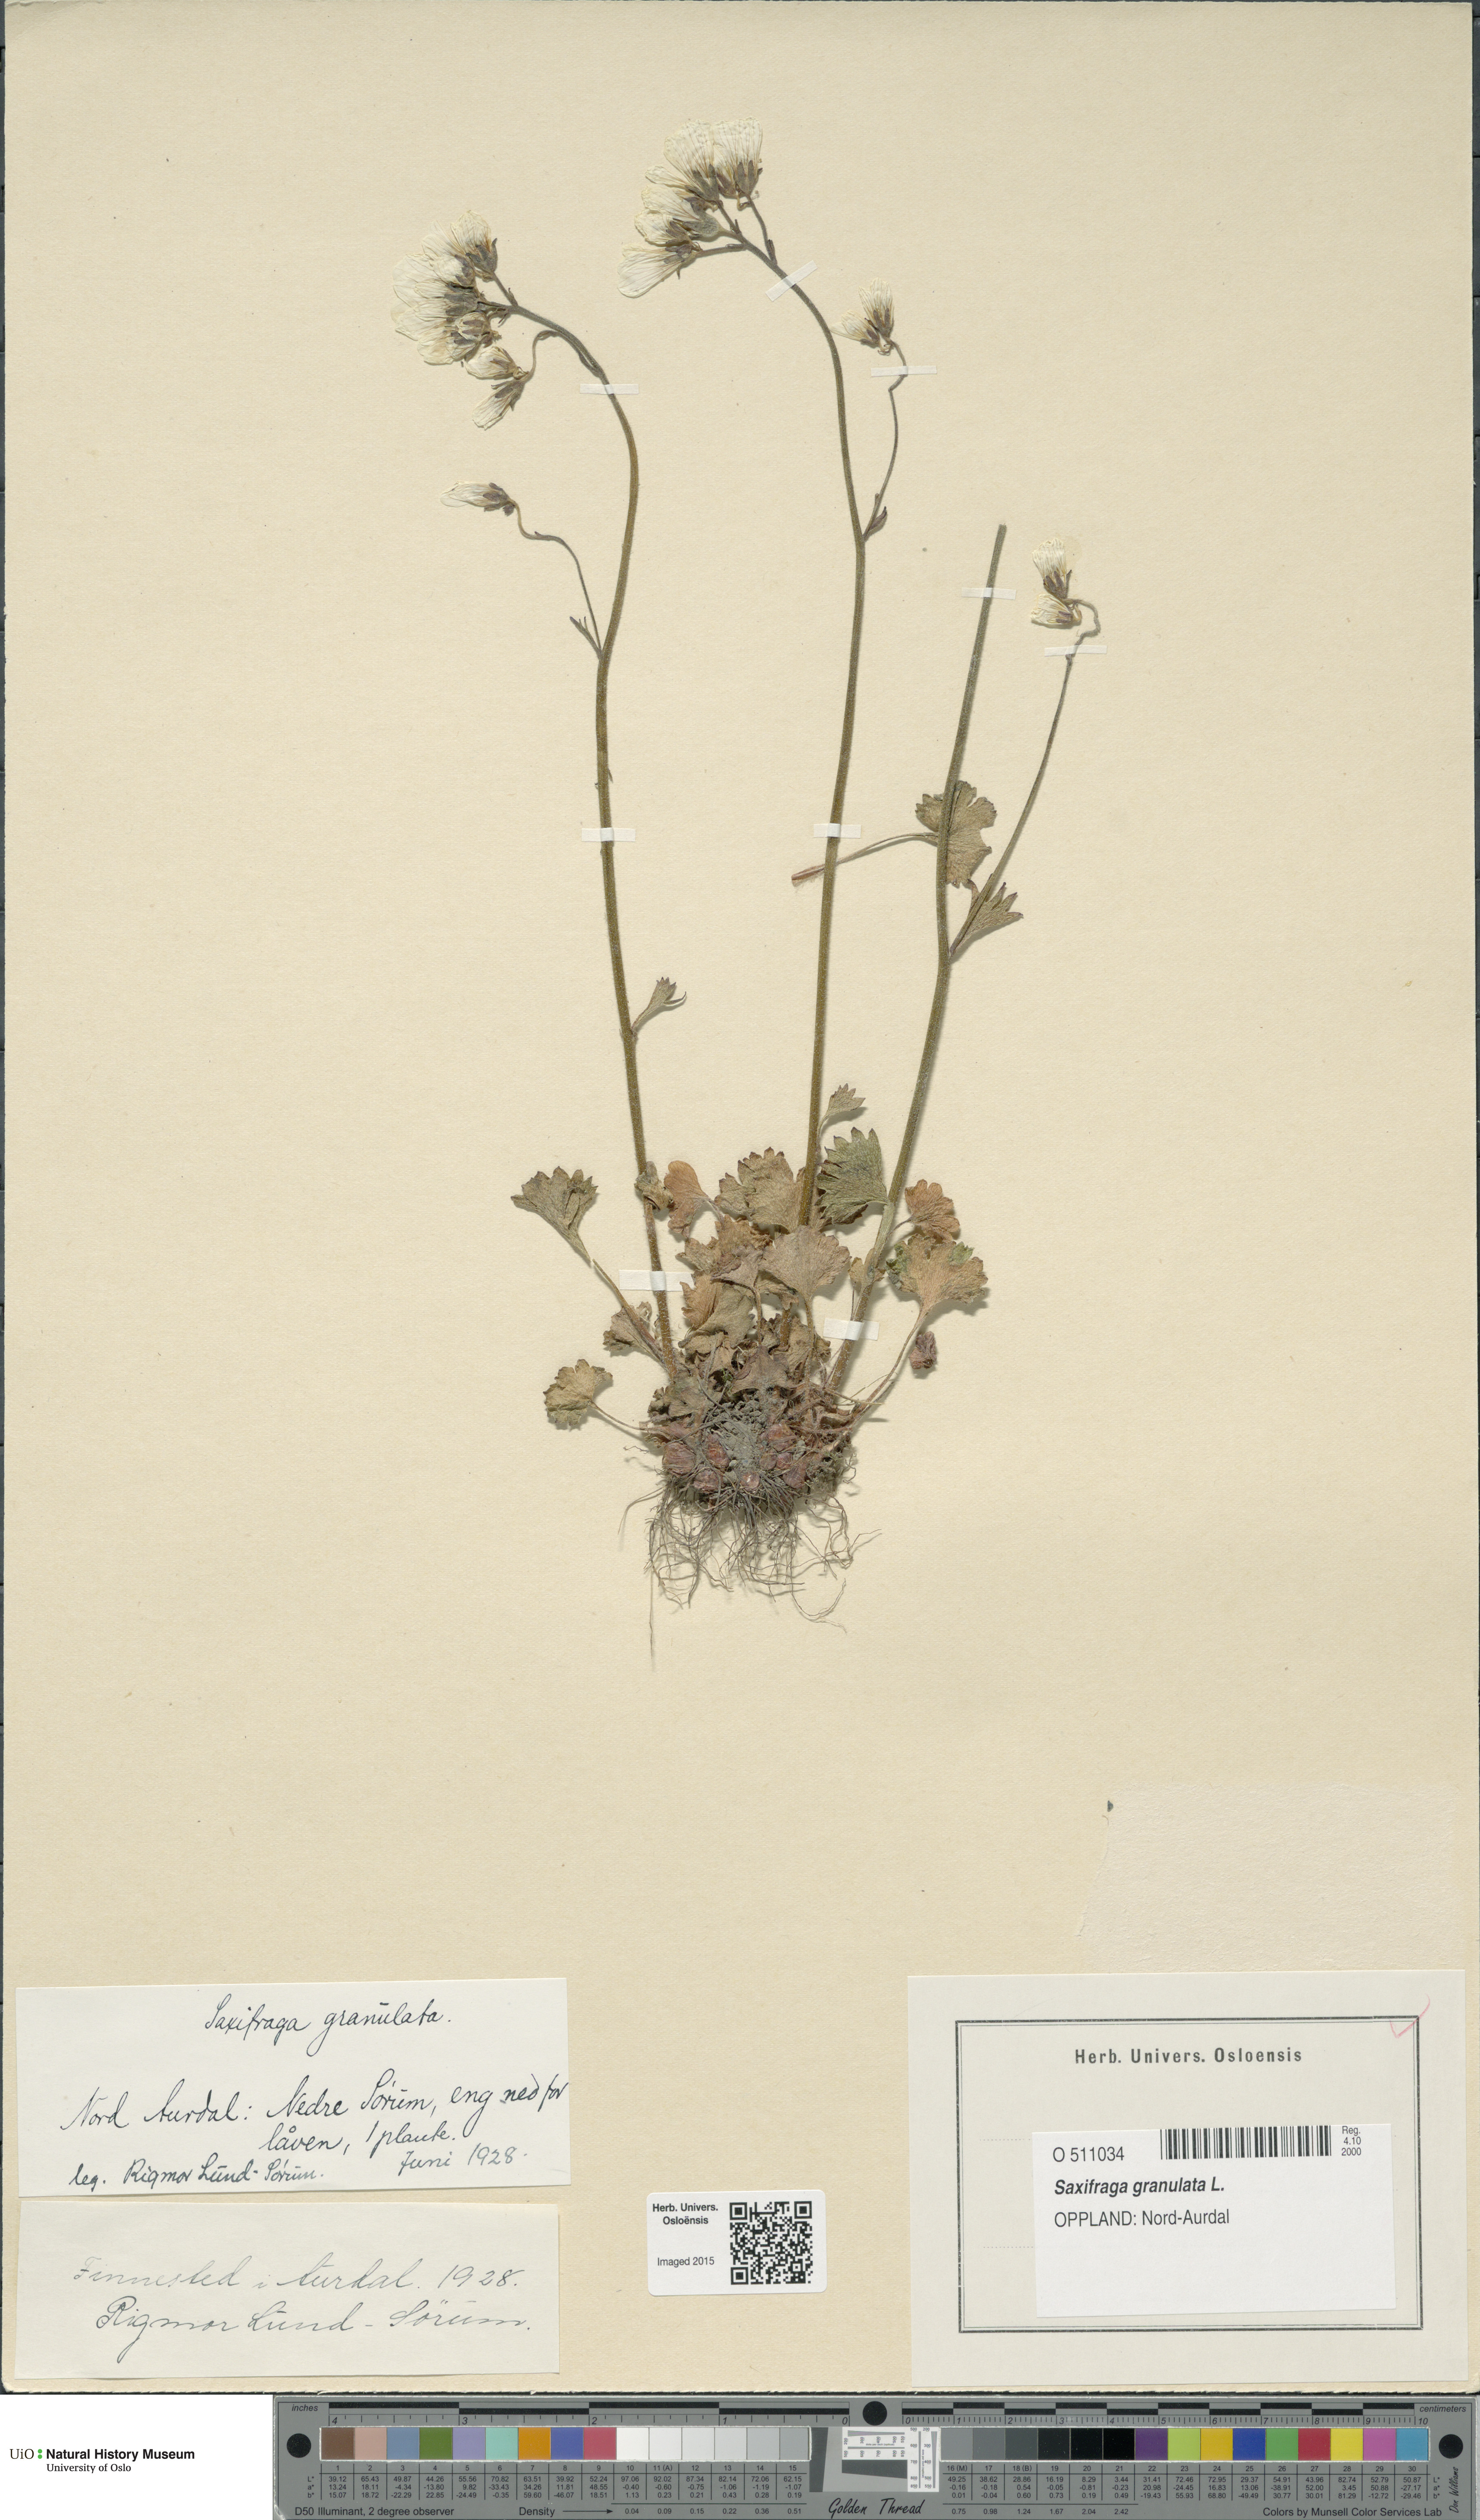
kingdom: Plantae
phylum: Tracheophyta
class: Magnoliopsida
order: Saxifragales
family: Saxifragaceae
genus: Saxifraga
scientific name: Saxifraga granulata
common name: Meadow saxifrage
